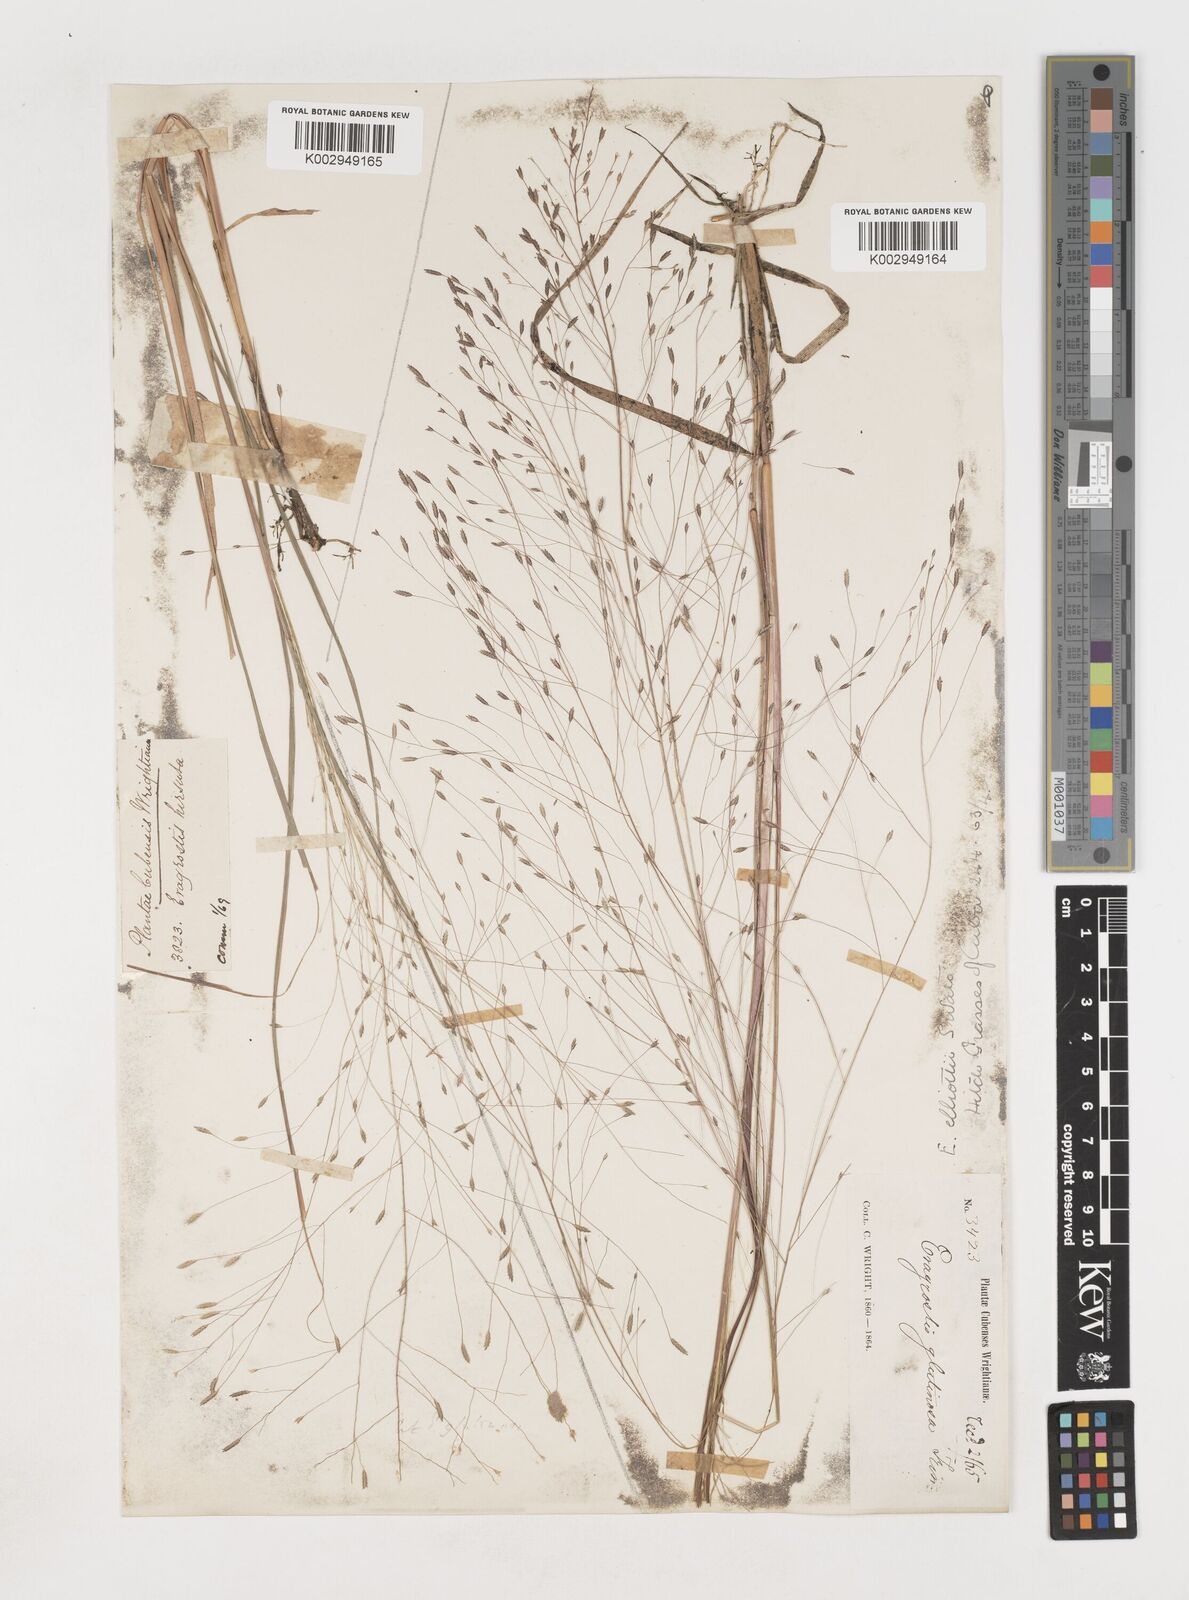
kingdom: Plantae
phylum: Tracheophyta
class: Liliopsida
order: Poales
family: Poaceae
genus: Eragrostis
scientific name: Eragrostis elliottii
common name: Elliott's love grass
